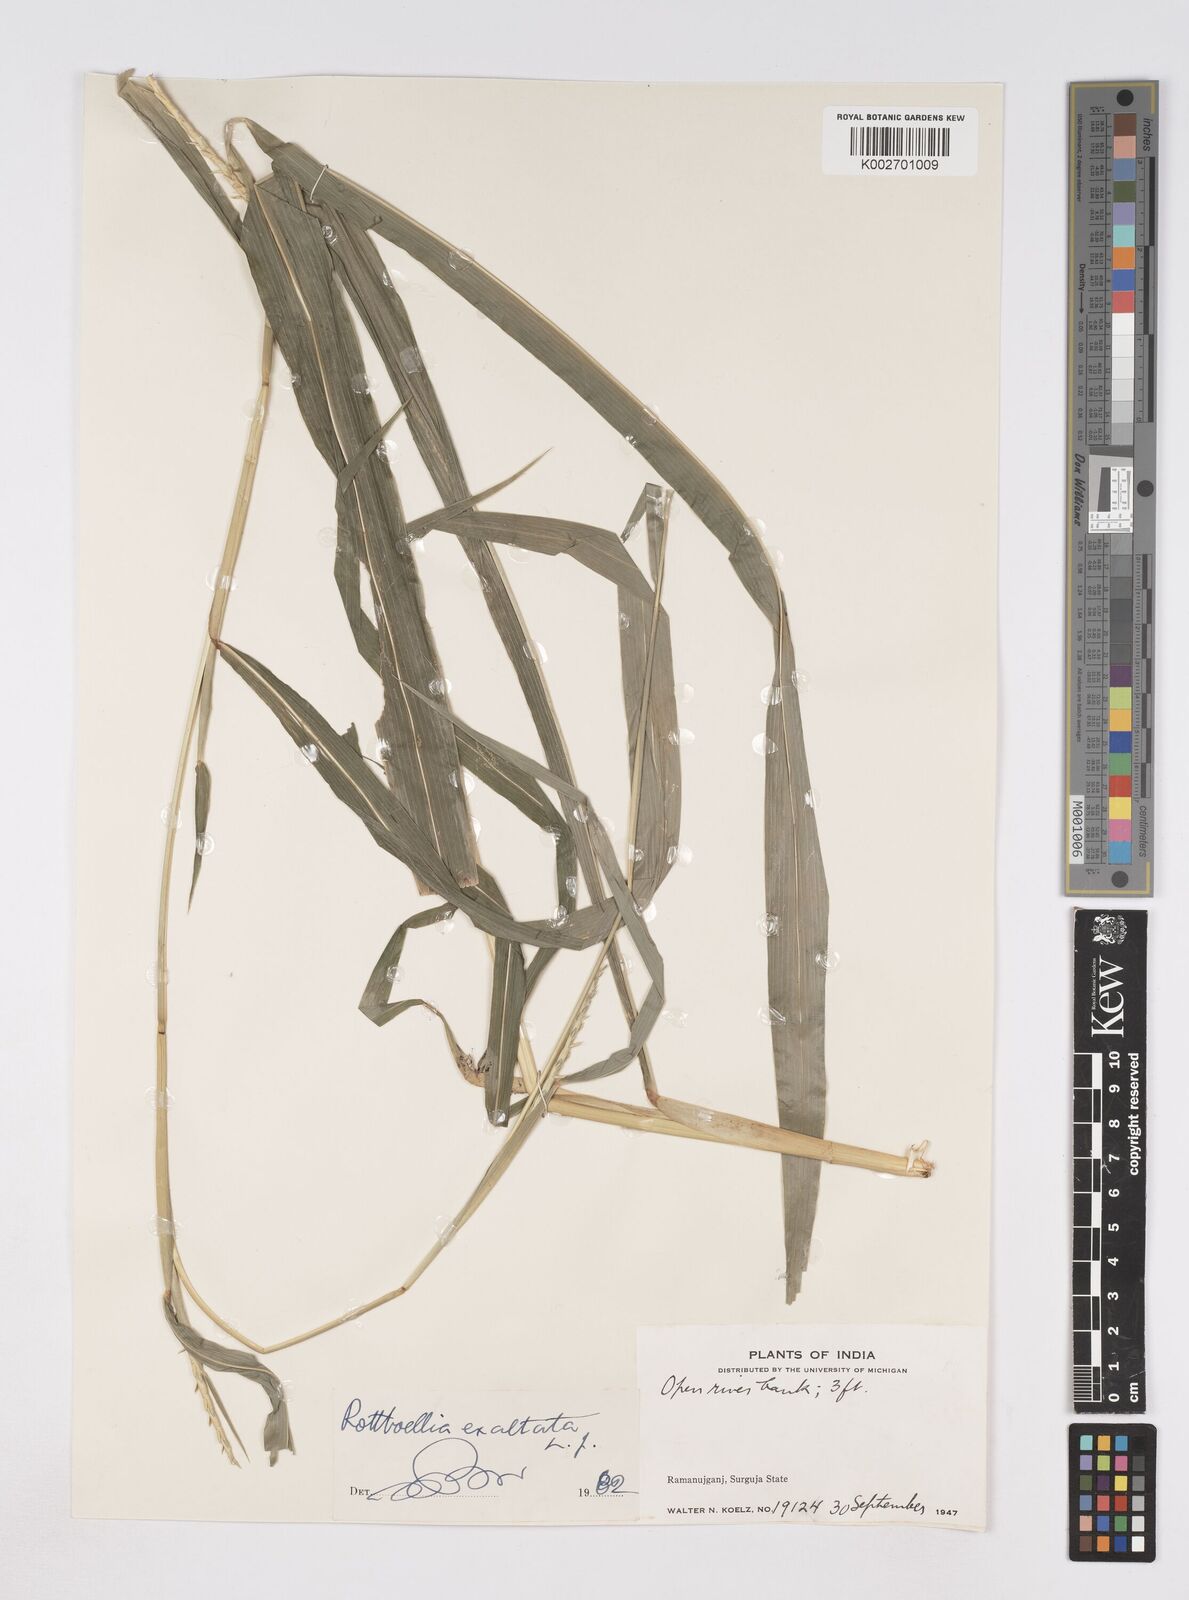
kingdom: Plantae
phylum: Tracheophyta
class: Liliopsida
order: Poales
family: Poaceae
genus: Ophiuros
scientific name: Ophiuros exaltatus
